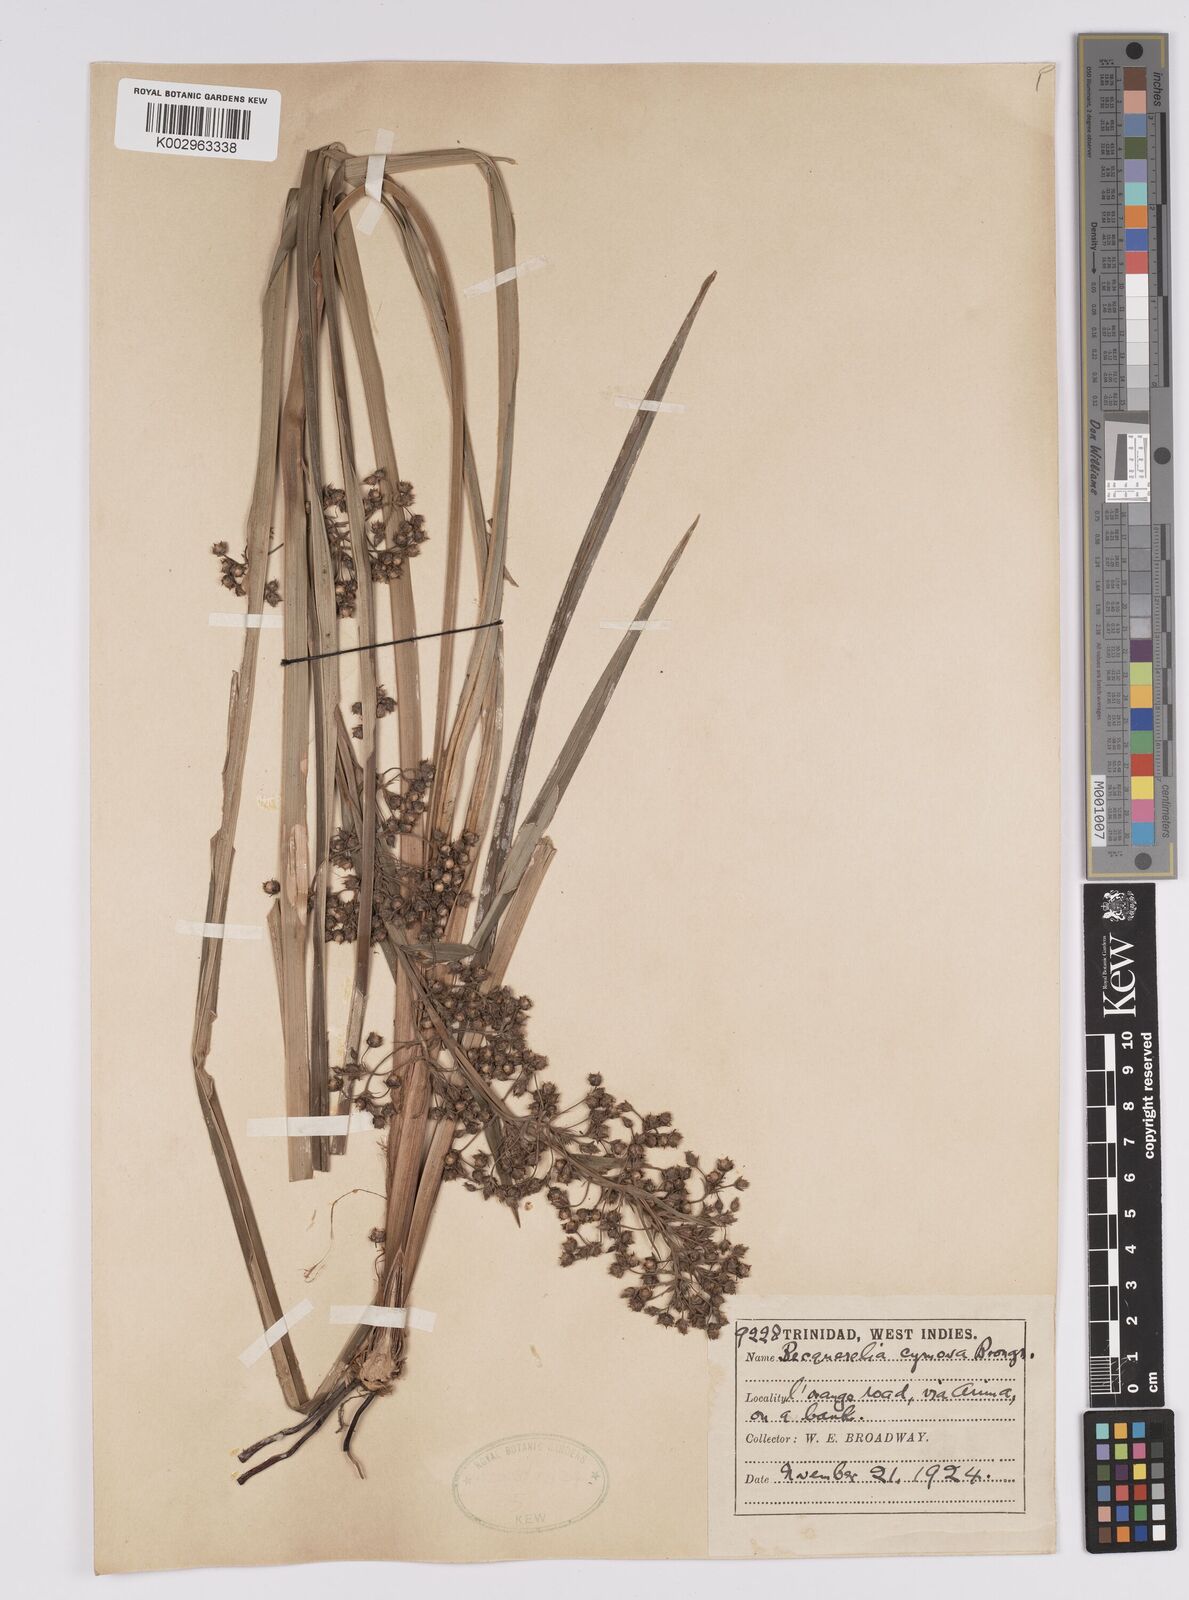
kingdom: Plantae
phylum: Tracheophyta
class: Liliopsida
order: Poales
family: Cyperaceae
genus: Becquerelia
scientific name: Becquerelia cymosa
